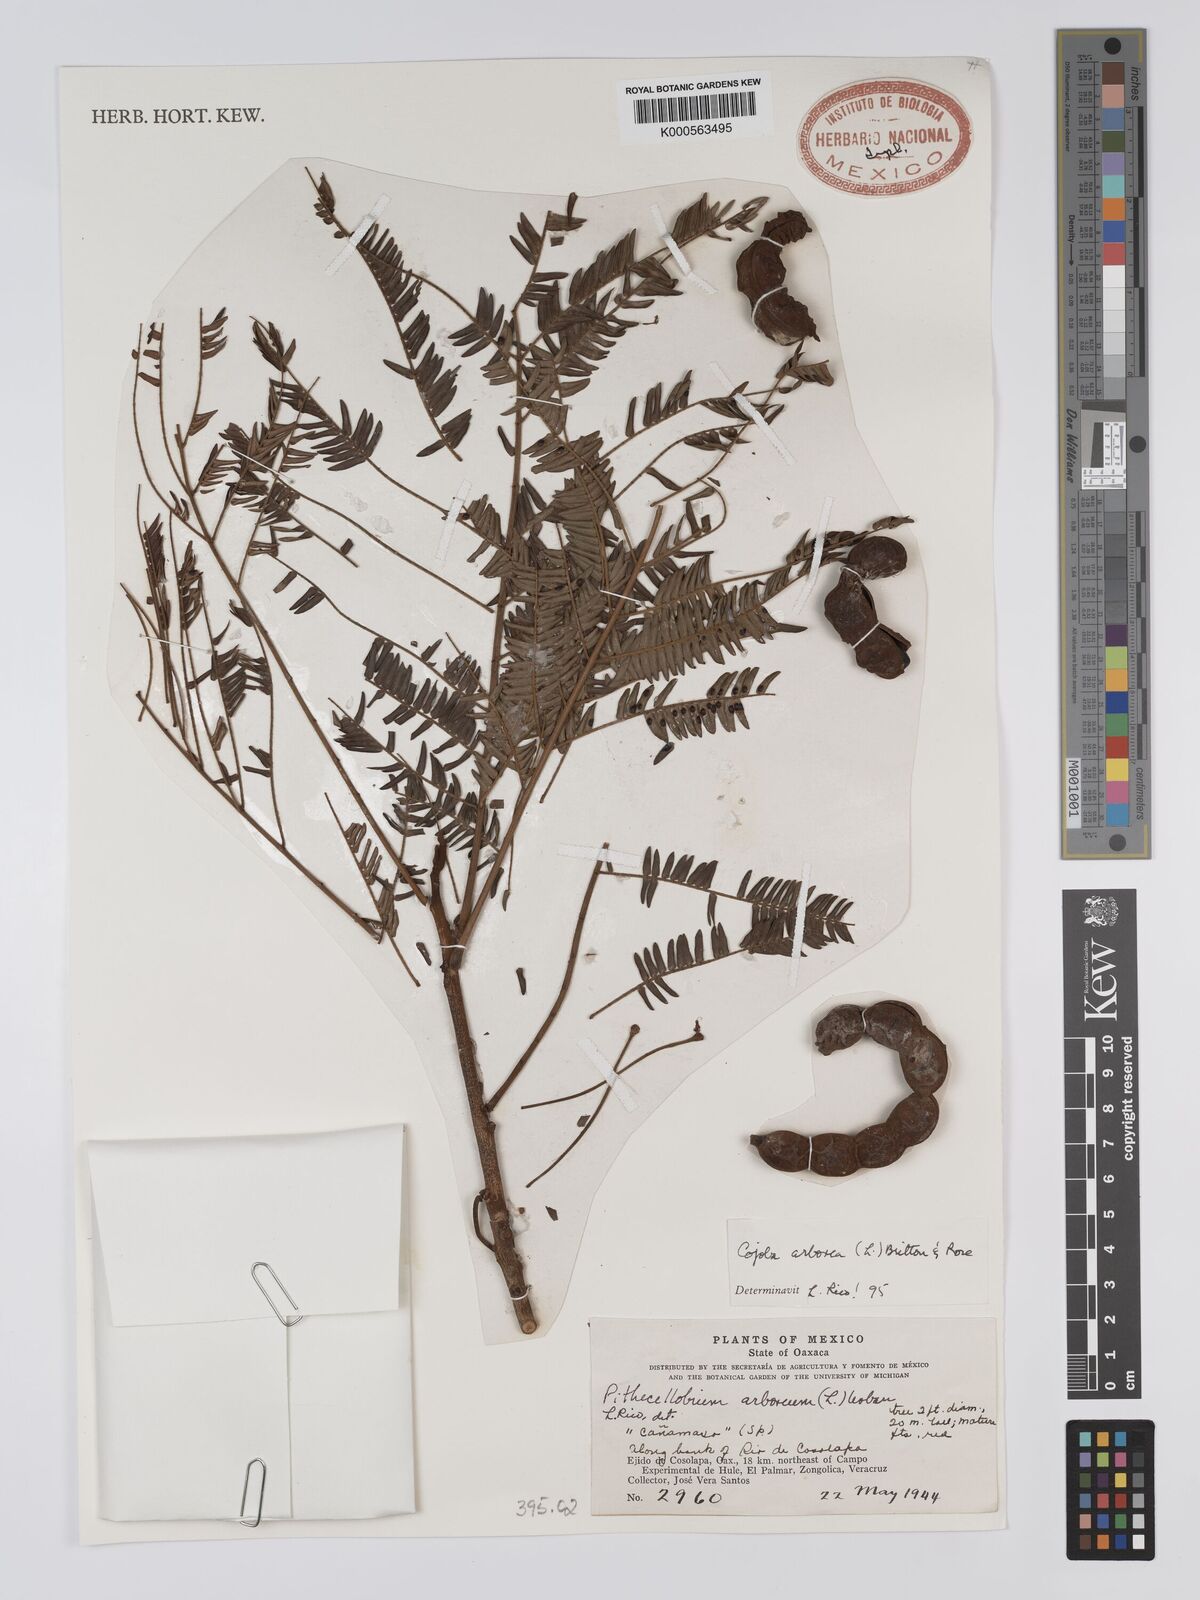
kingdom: Plantae
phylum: Tracheophyta
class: Magnoliopsida
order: Fabales
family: Fabaceae
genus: Cojoba
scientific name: Cojoba arborea
